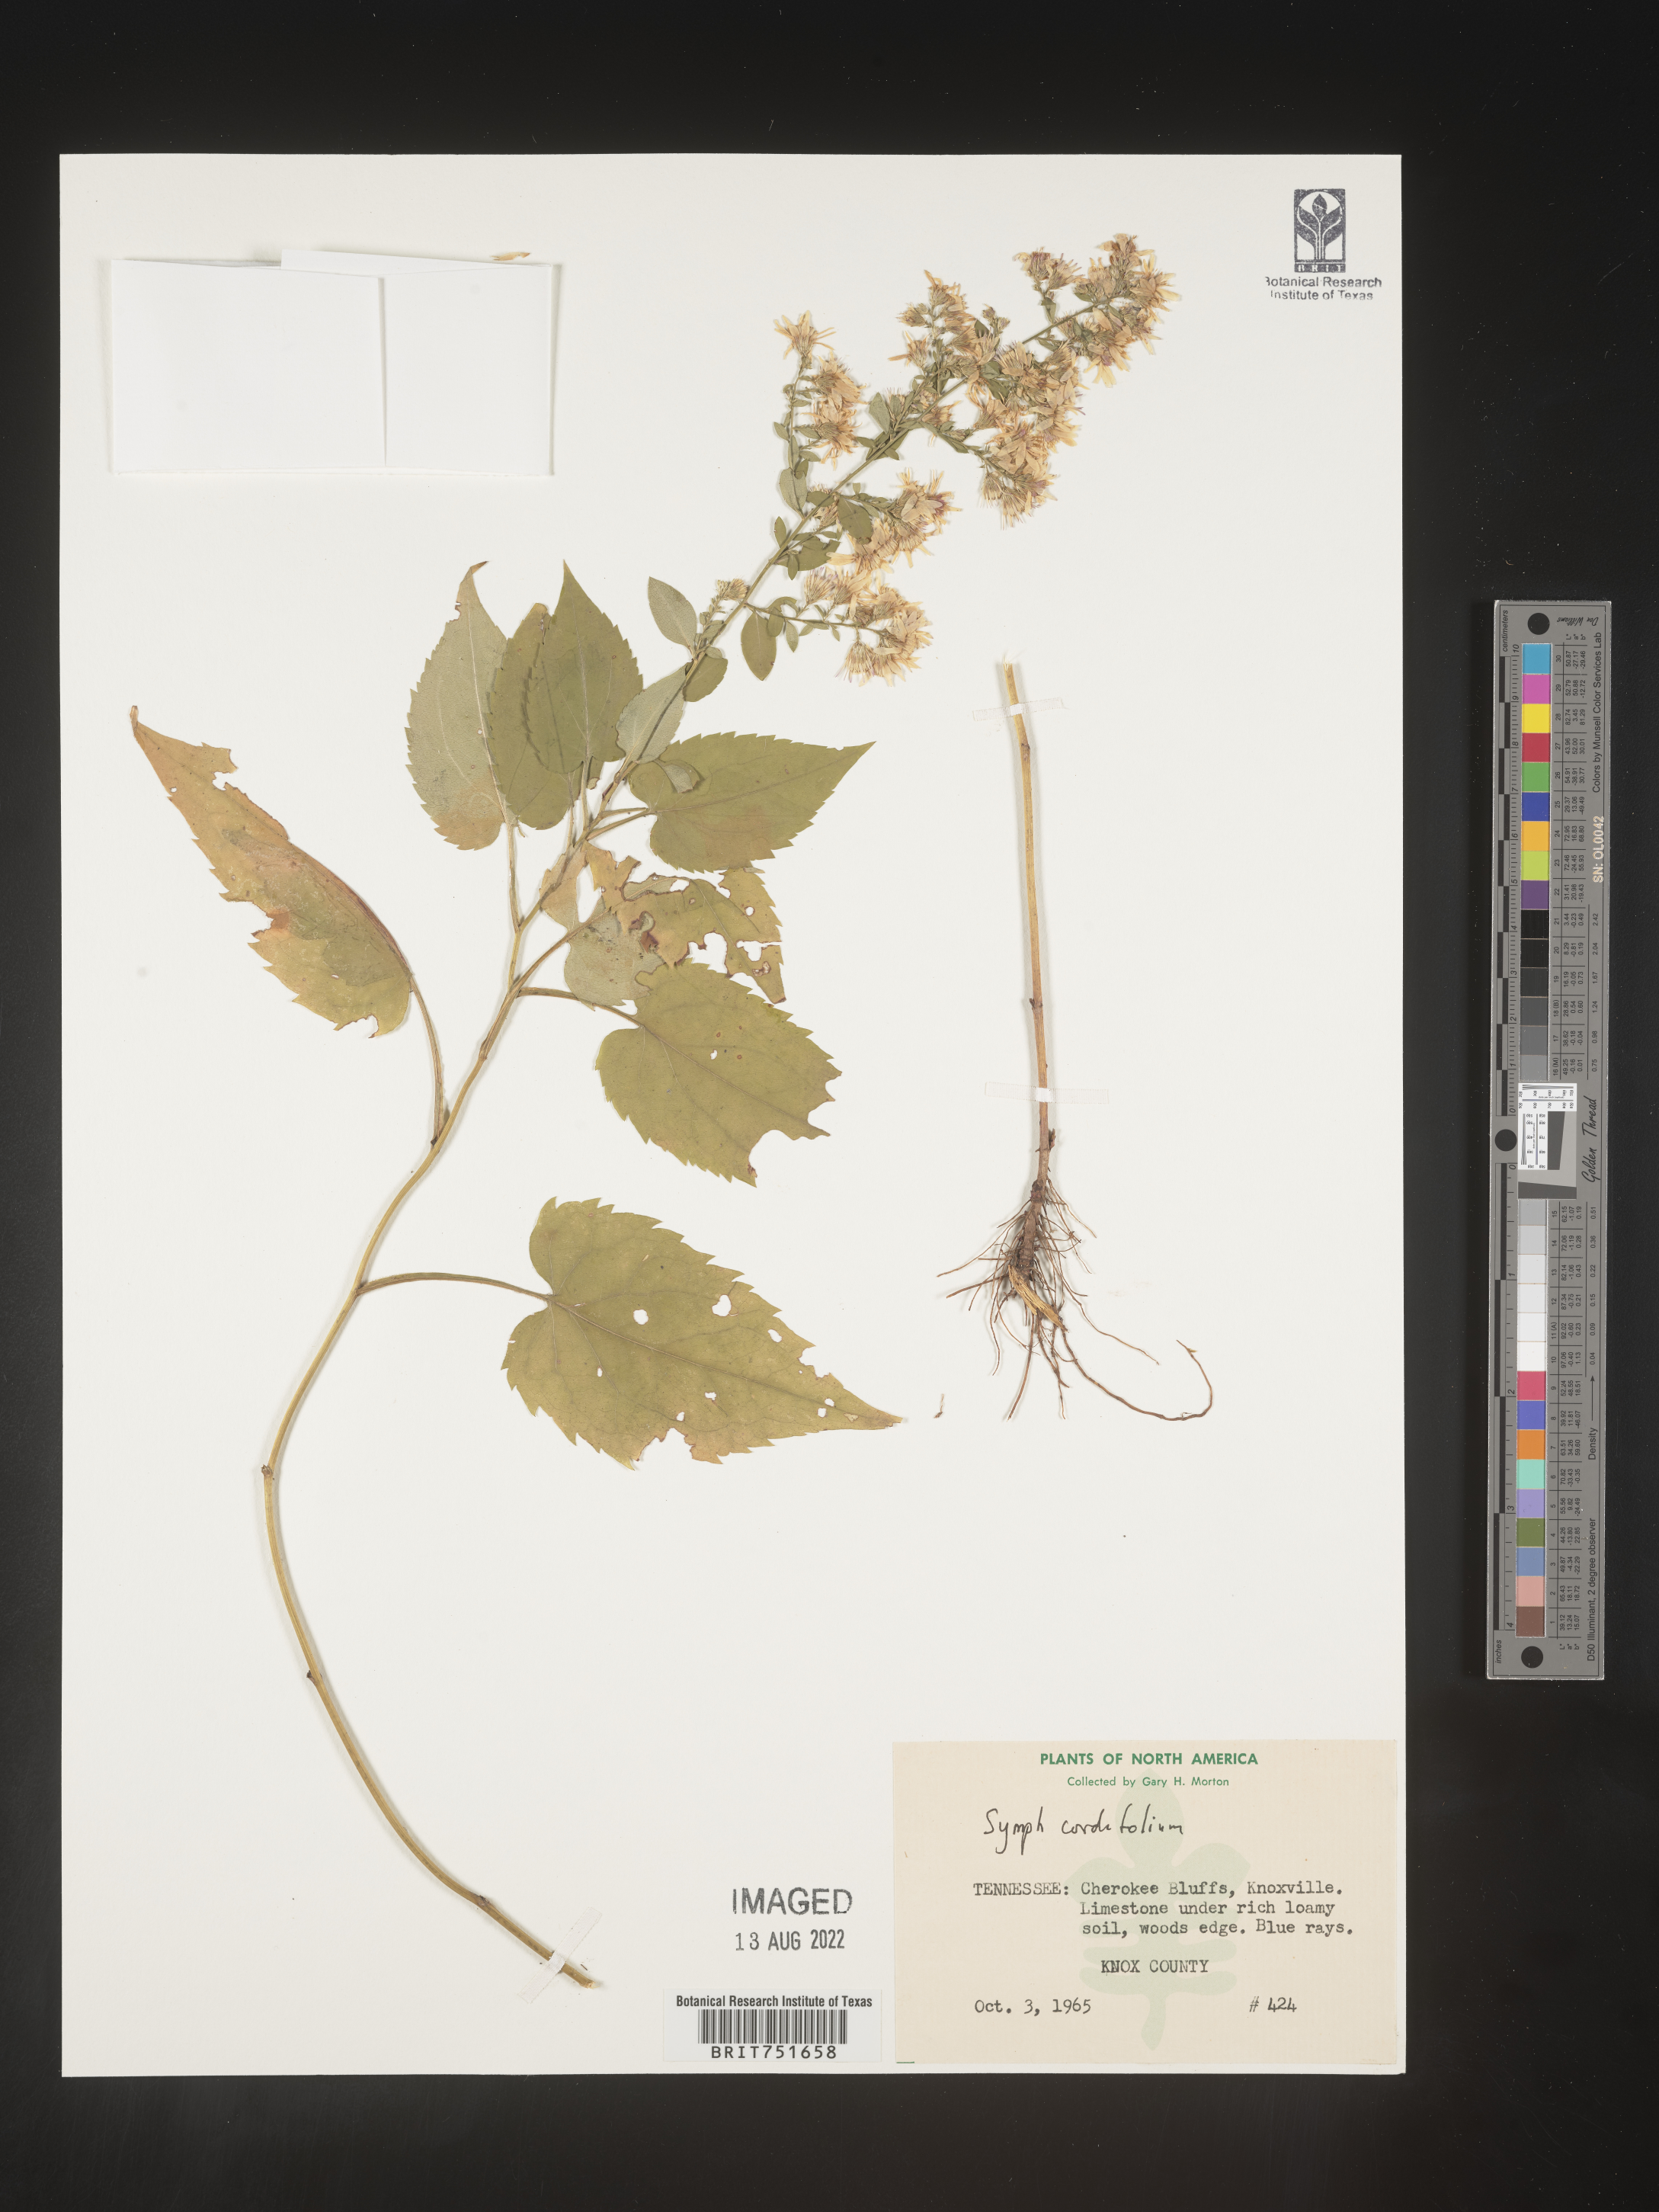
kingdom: Plantae
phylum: Tracheophyta
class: Magnoliopsida
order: Asterales
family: Asteraceae
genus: Symphyotrichum
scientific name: Symphyotrichum cordifolium
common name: Beeweed
